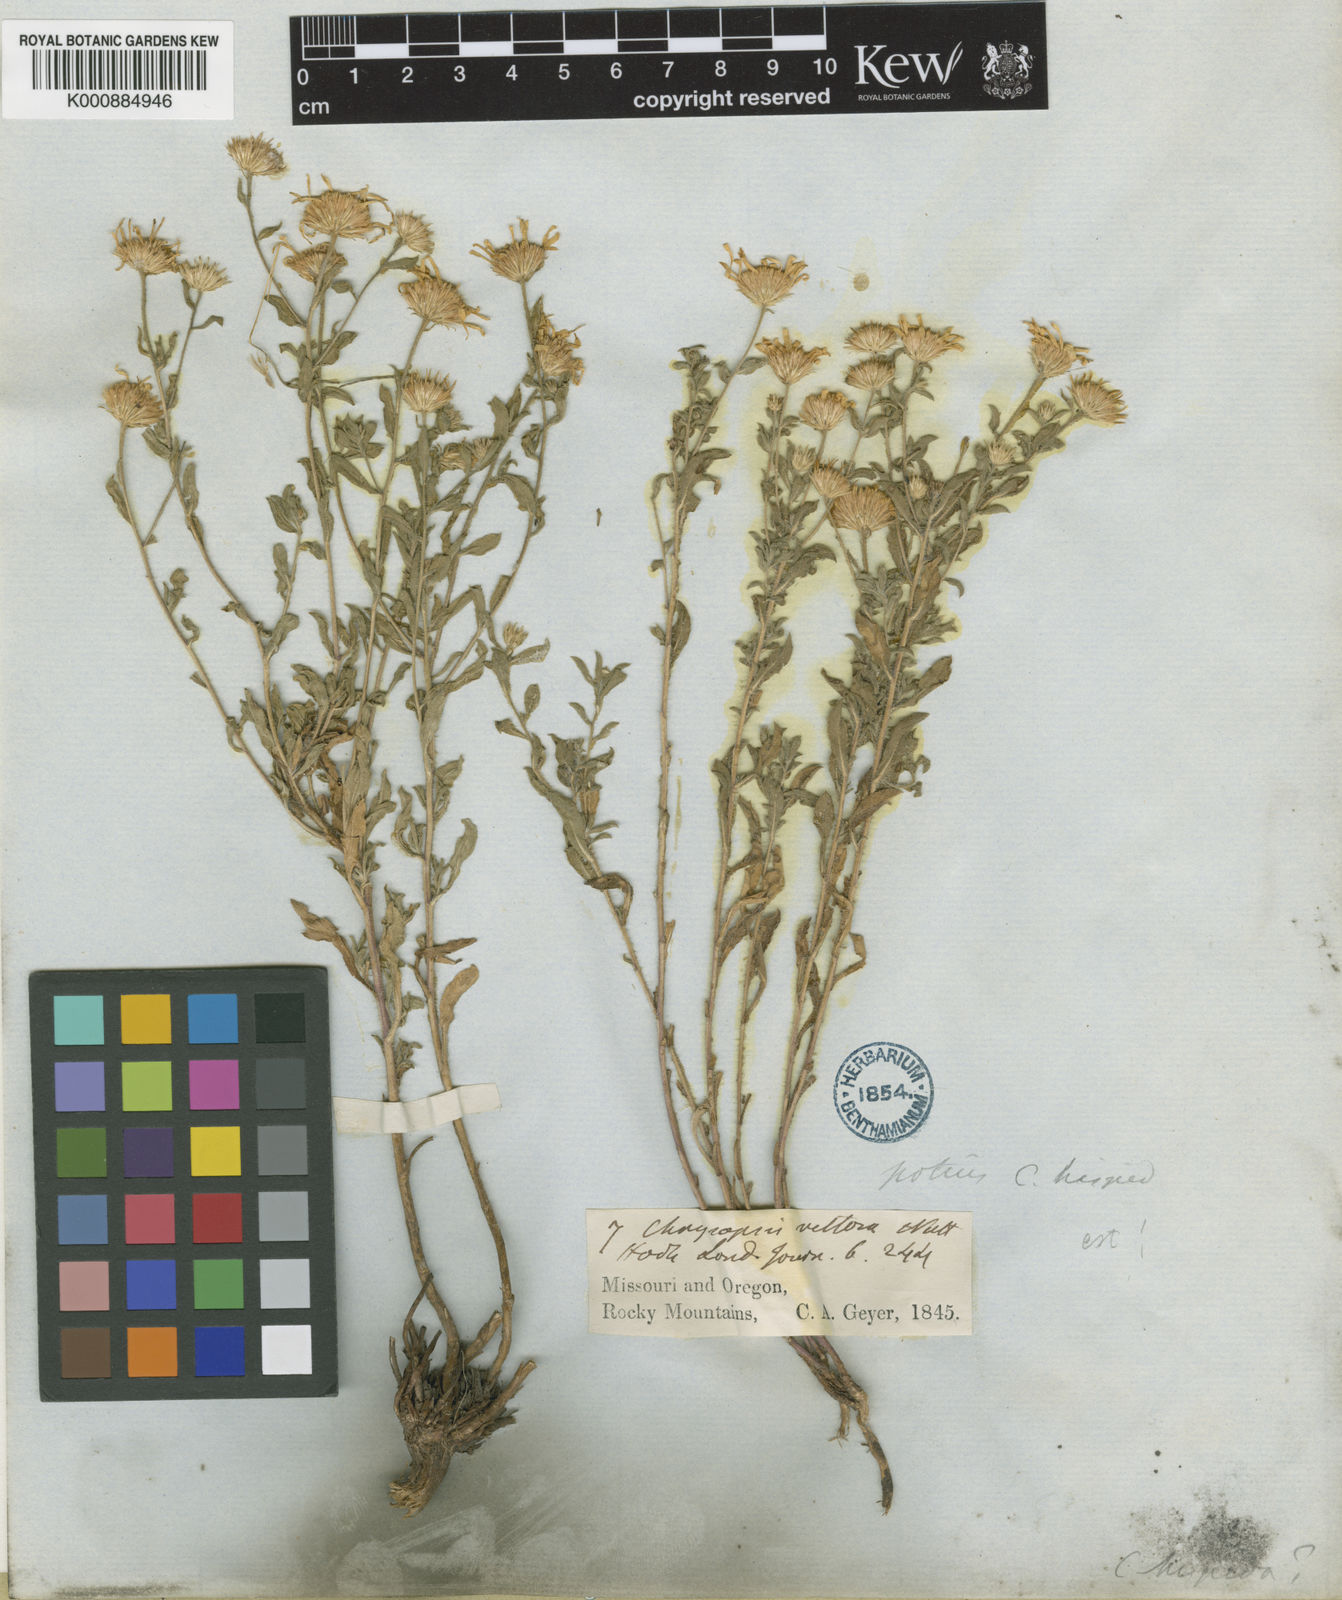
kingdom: Plantae
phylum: Tracheophyta
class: Magnoliopsida
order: Asterales
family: Asteraceae
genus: Heterotheca
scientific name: Heterotheca villosa
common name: Hairy false goldenaster
